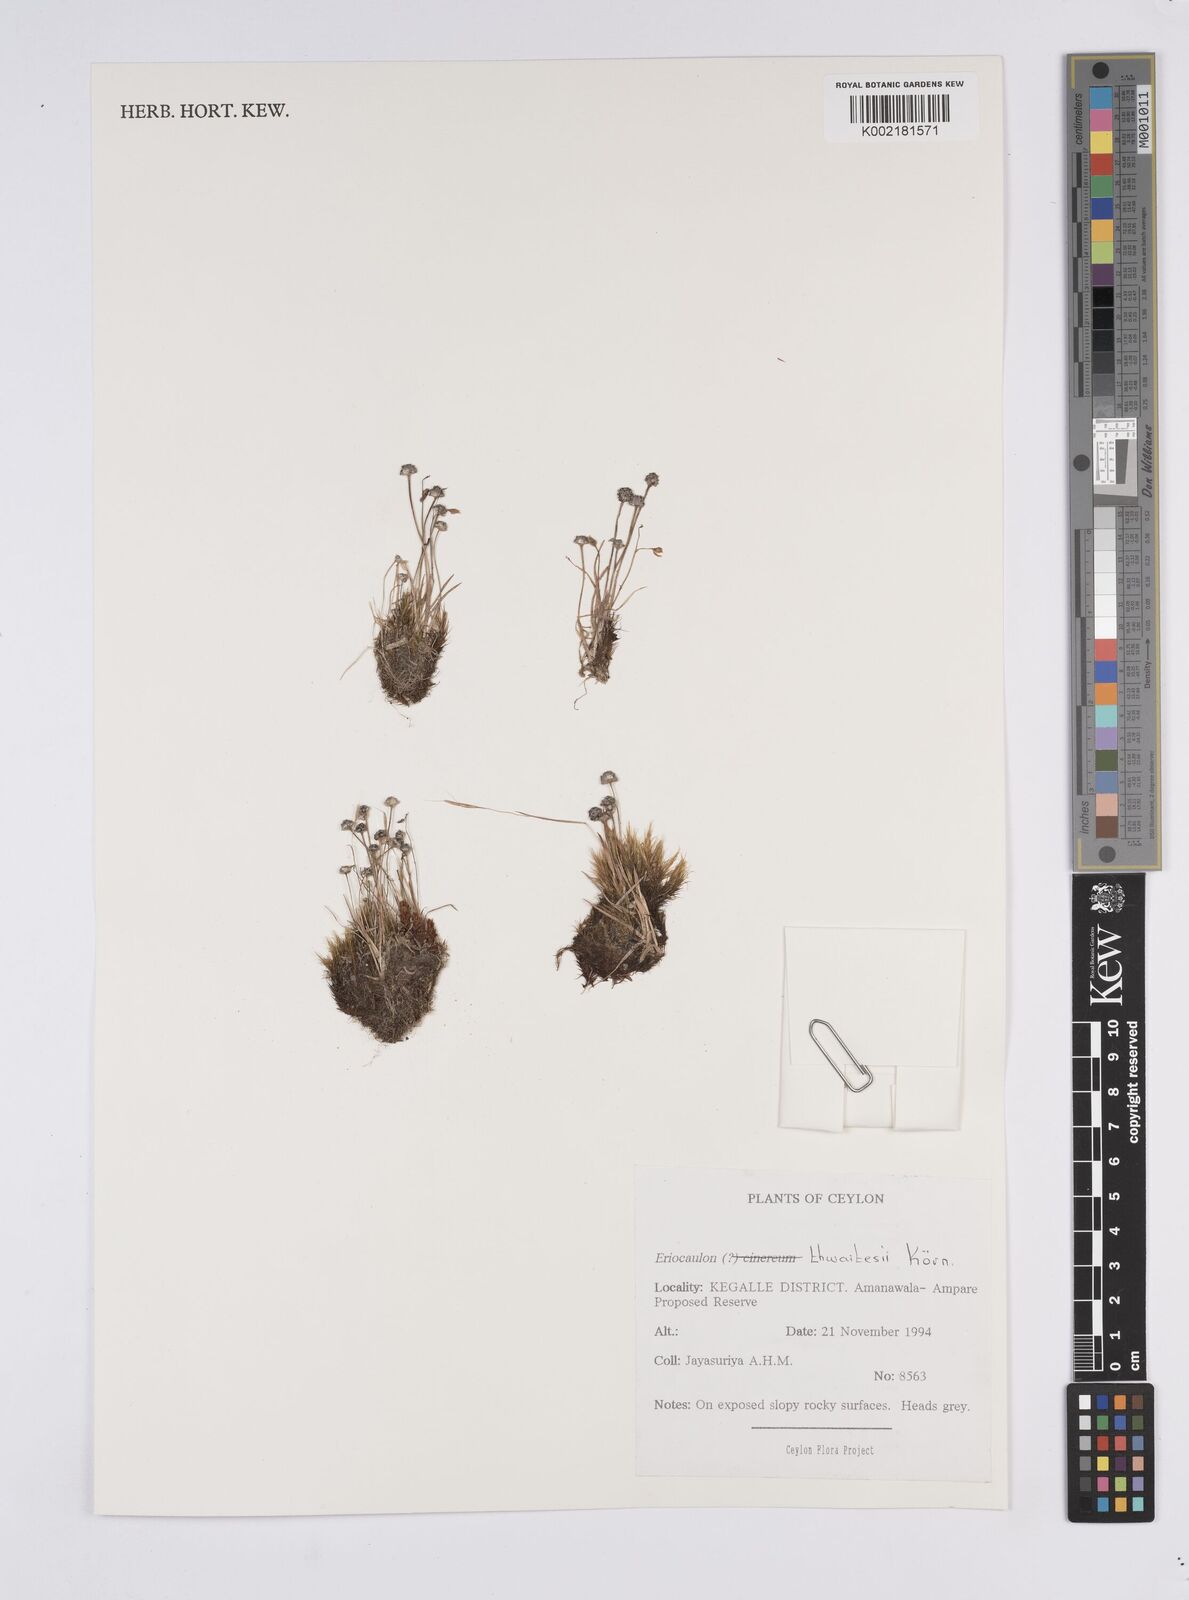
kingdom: Plantae
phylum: Tracheophyta
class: Liliopsida
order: Poales
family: Eriocaulaceae
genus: Eriocaulon
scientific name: Eriocaulon thwaitesii
